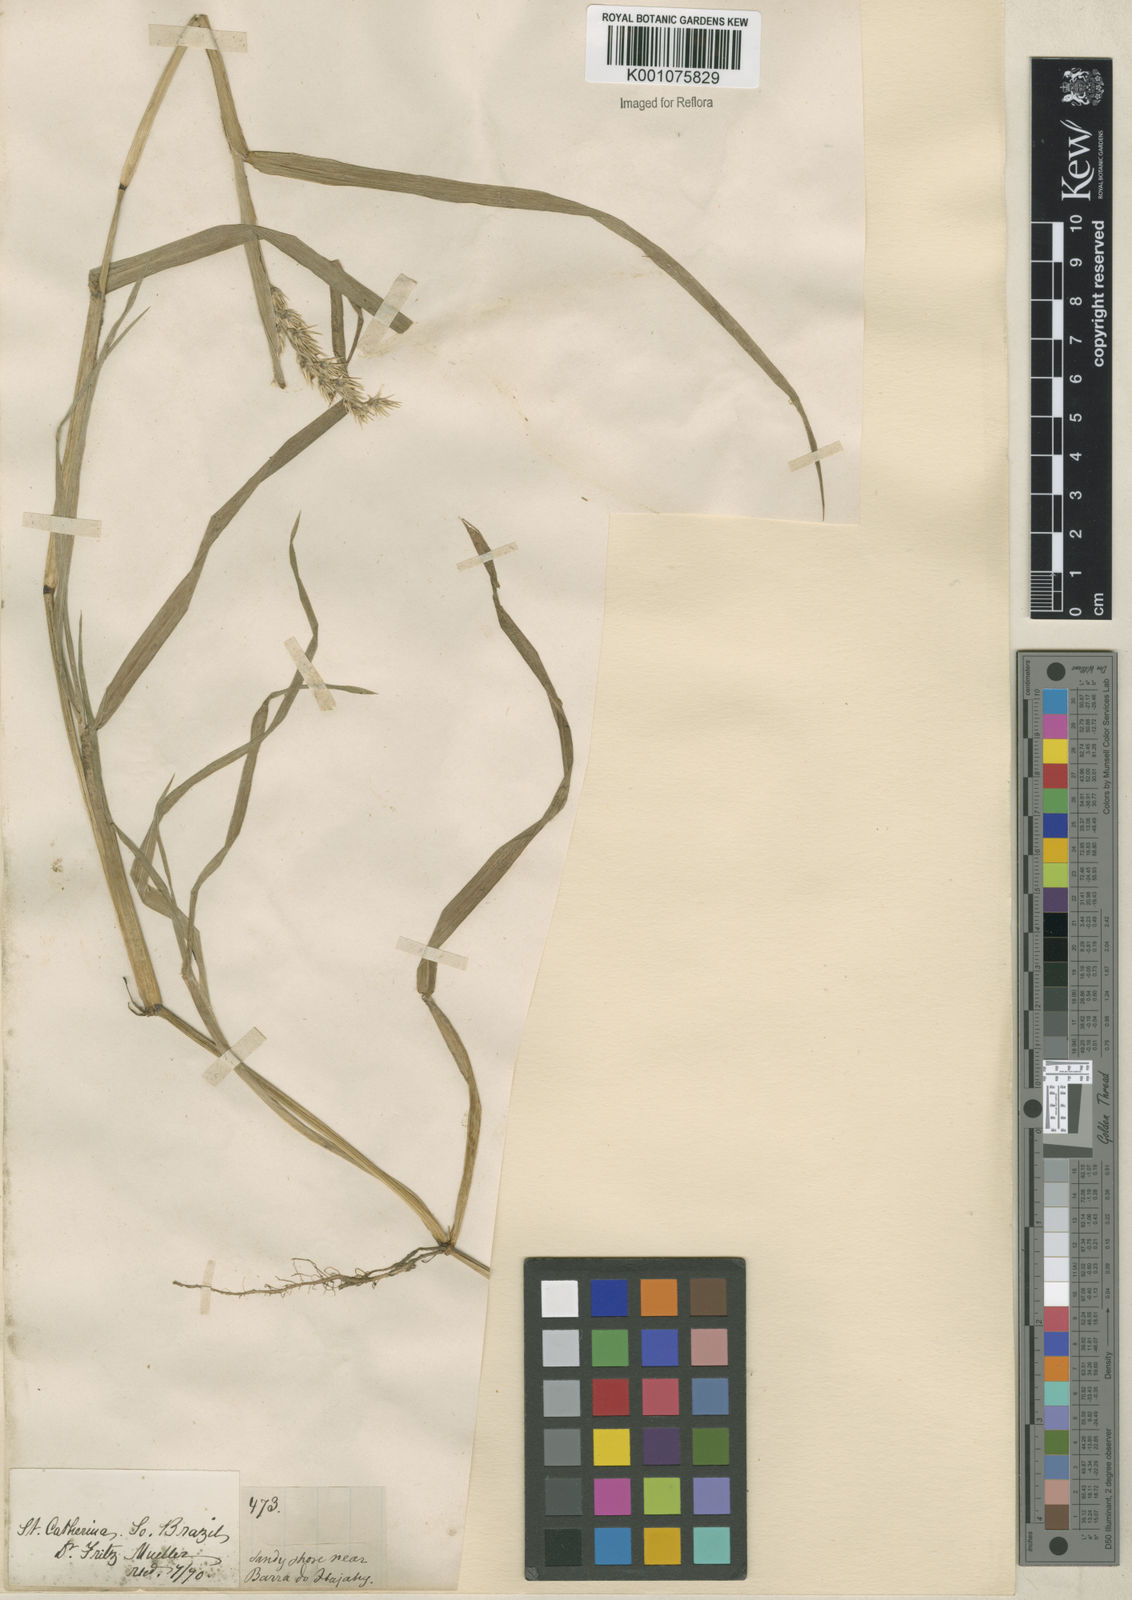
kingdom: Plantae
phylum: Tracheophyta
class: Liliopsida
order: Poales
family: Poaceae
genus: Cenchrus
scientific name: Cenchrus echinatus
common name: Southern sandbur
